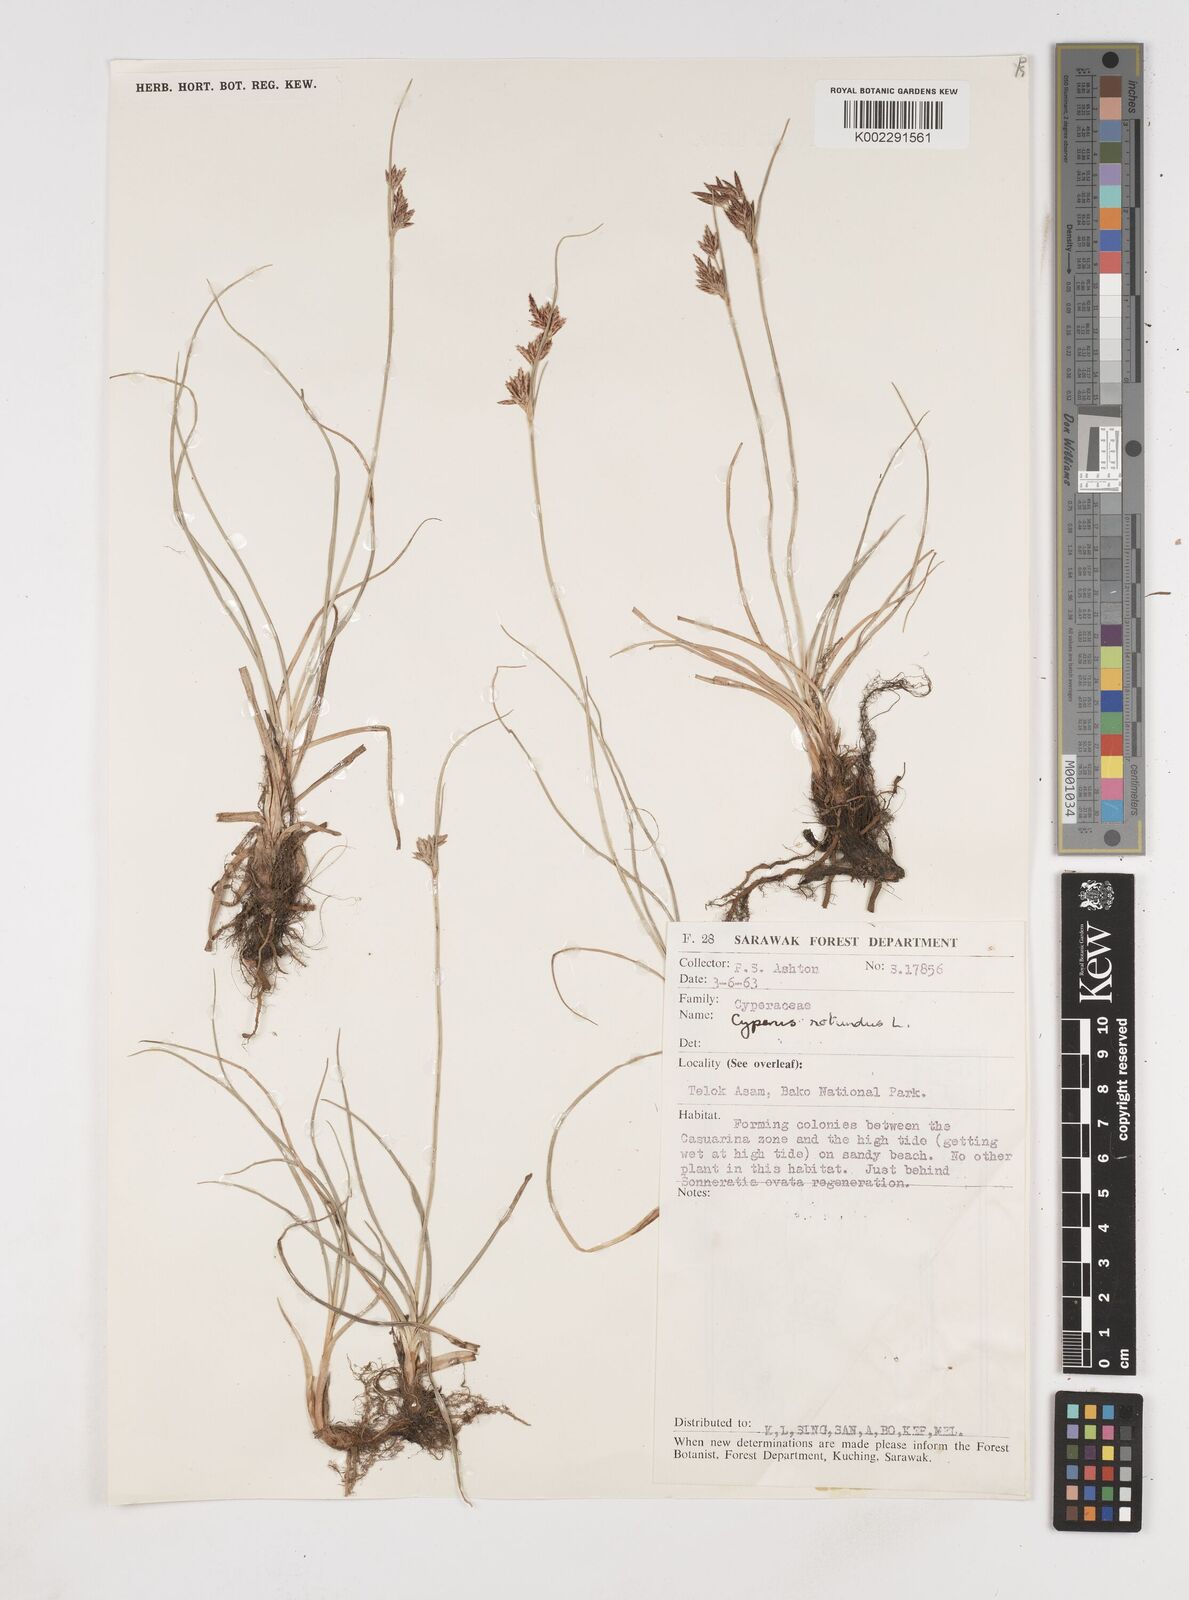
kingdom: Plantae
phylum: Tracheophyta
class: Liliopsida
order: Poales
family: Cyperaceae
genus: Cyperus
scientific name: Cyperus rotundus
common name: Nutgrass
